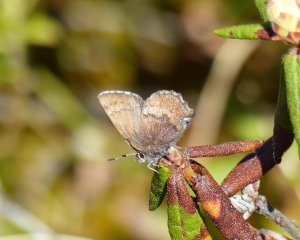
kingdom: Animalia
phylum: Arthropoda
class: Insecta
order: Lepidoptera
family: Lycaenidae
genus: Incisalia
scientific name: Incisalia irioides
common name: Brown Elfin
